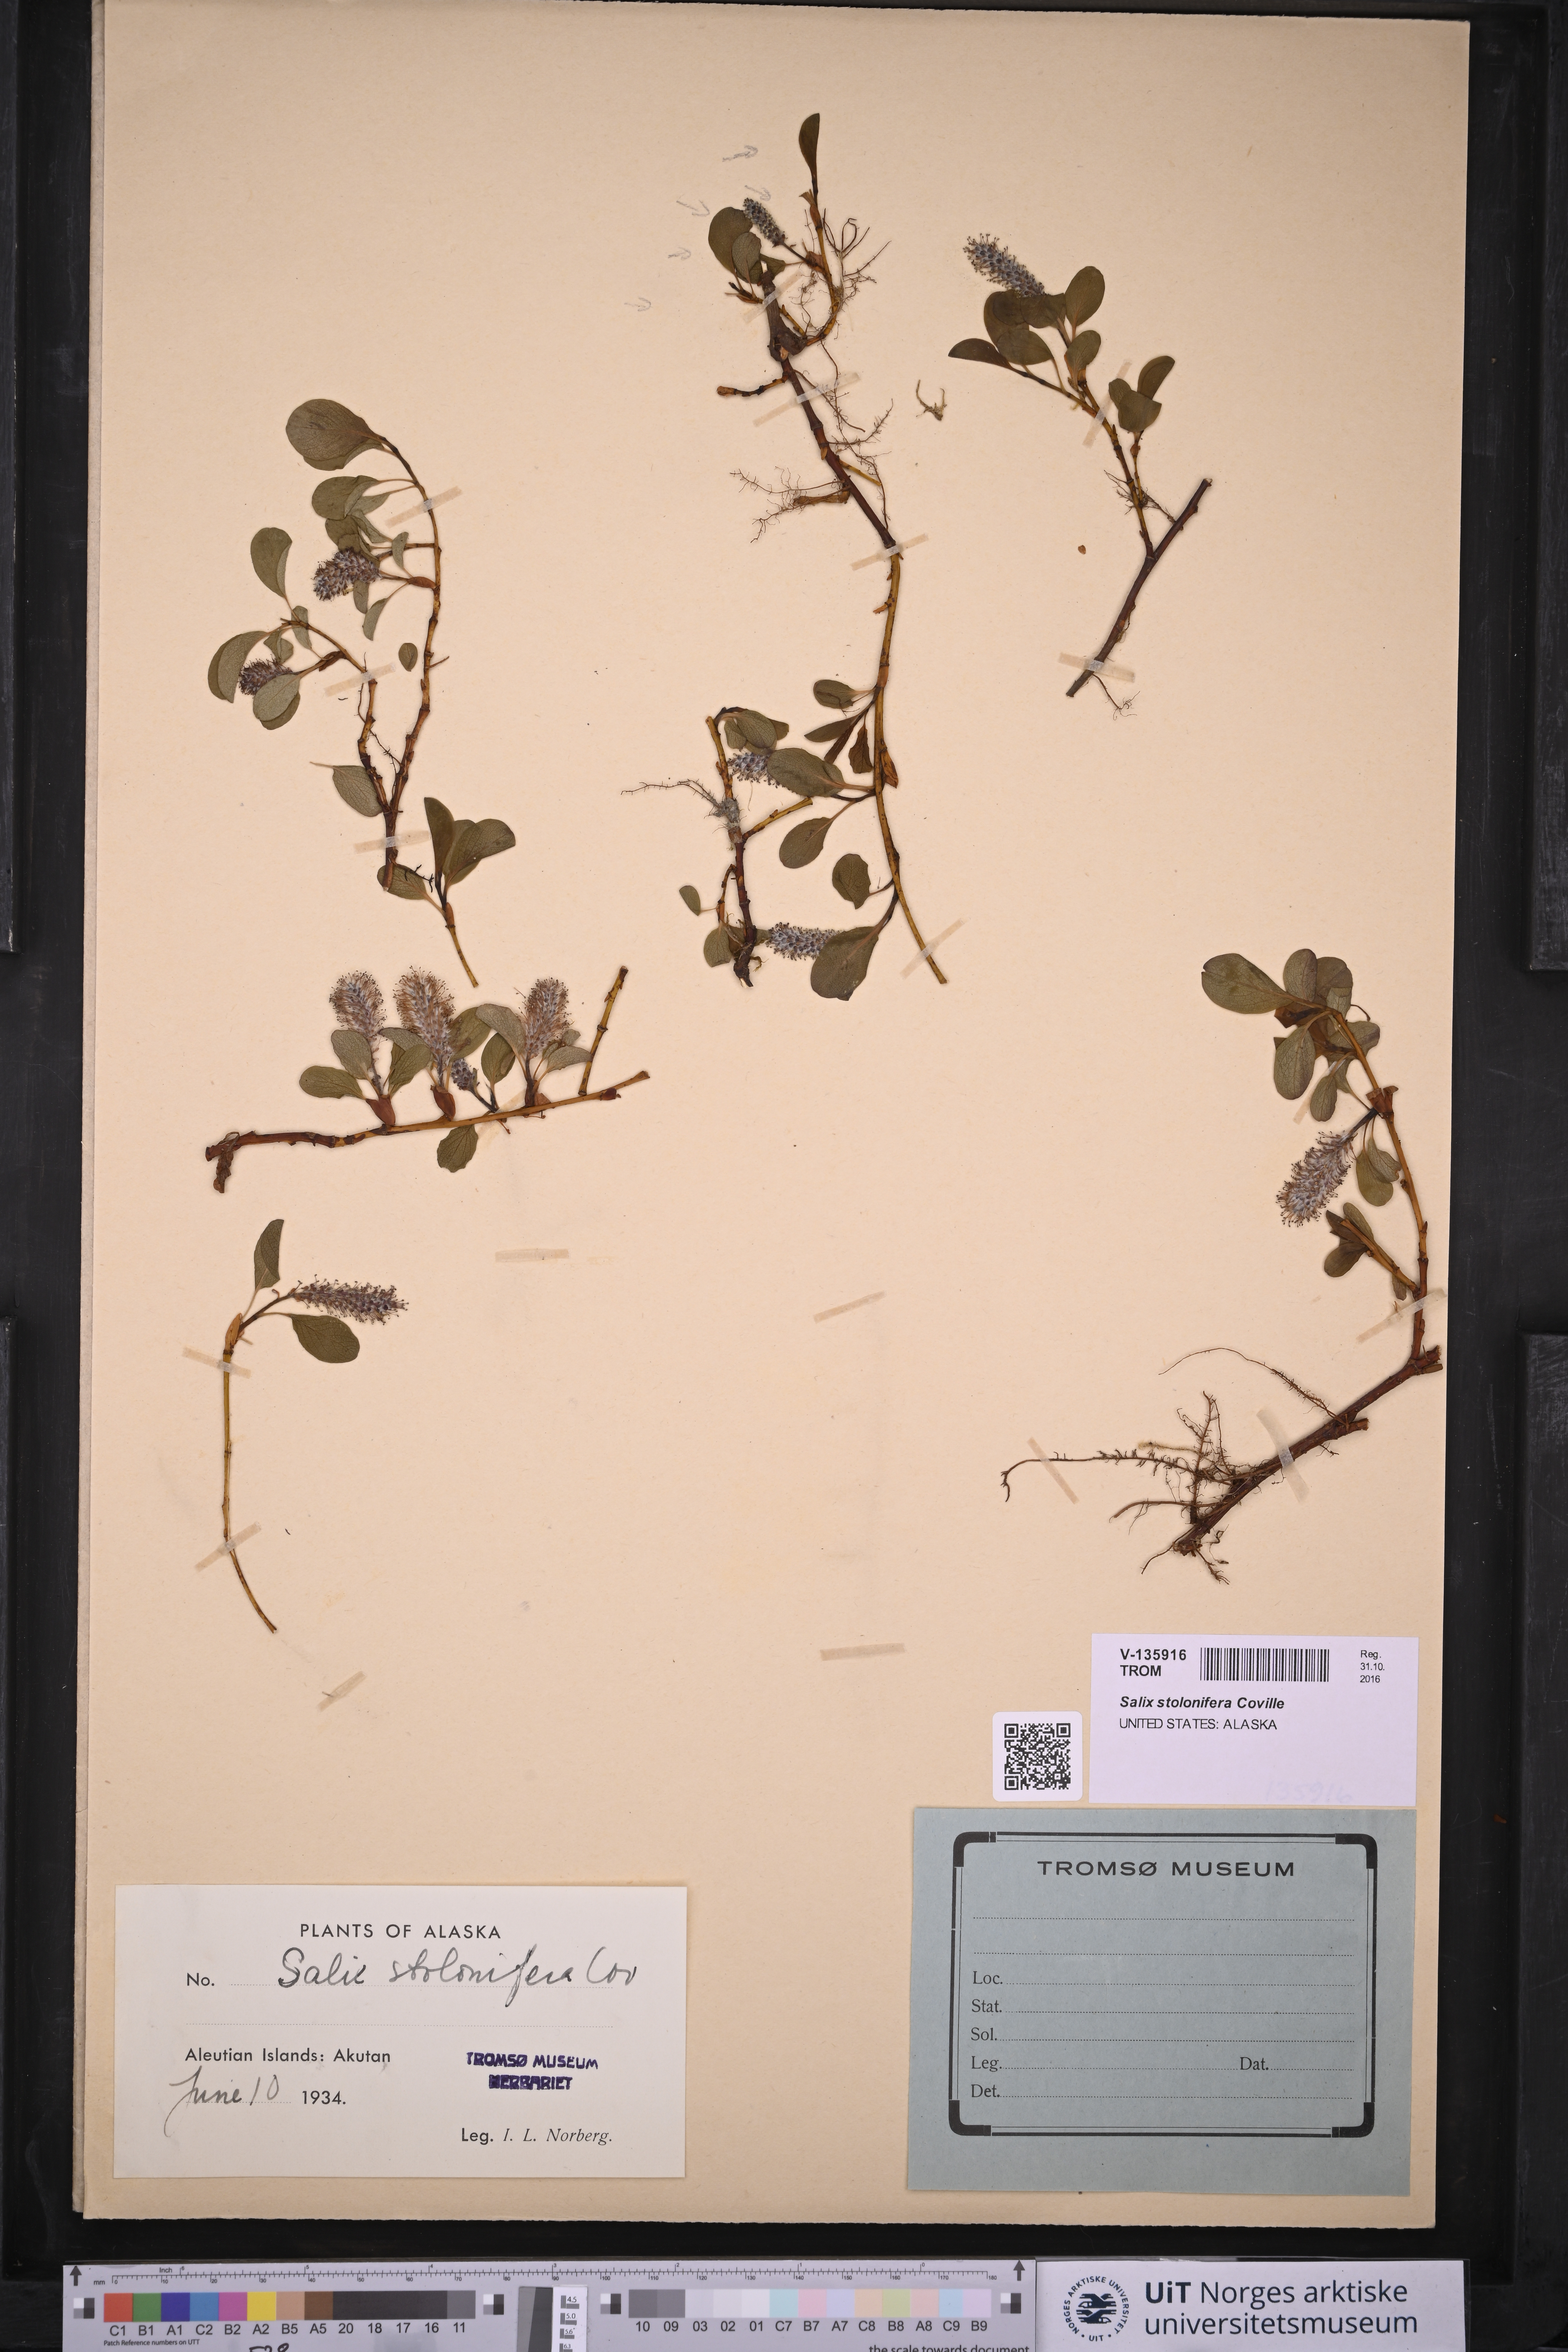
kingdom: Plantae
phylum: Tracheophyta
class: Magnoliopsida
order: Malpighiales
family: Salicaceae
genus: Salix
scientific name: Salix stolonifera
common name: Creeping willow
